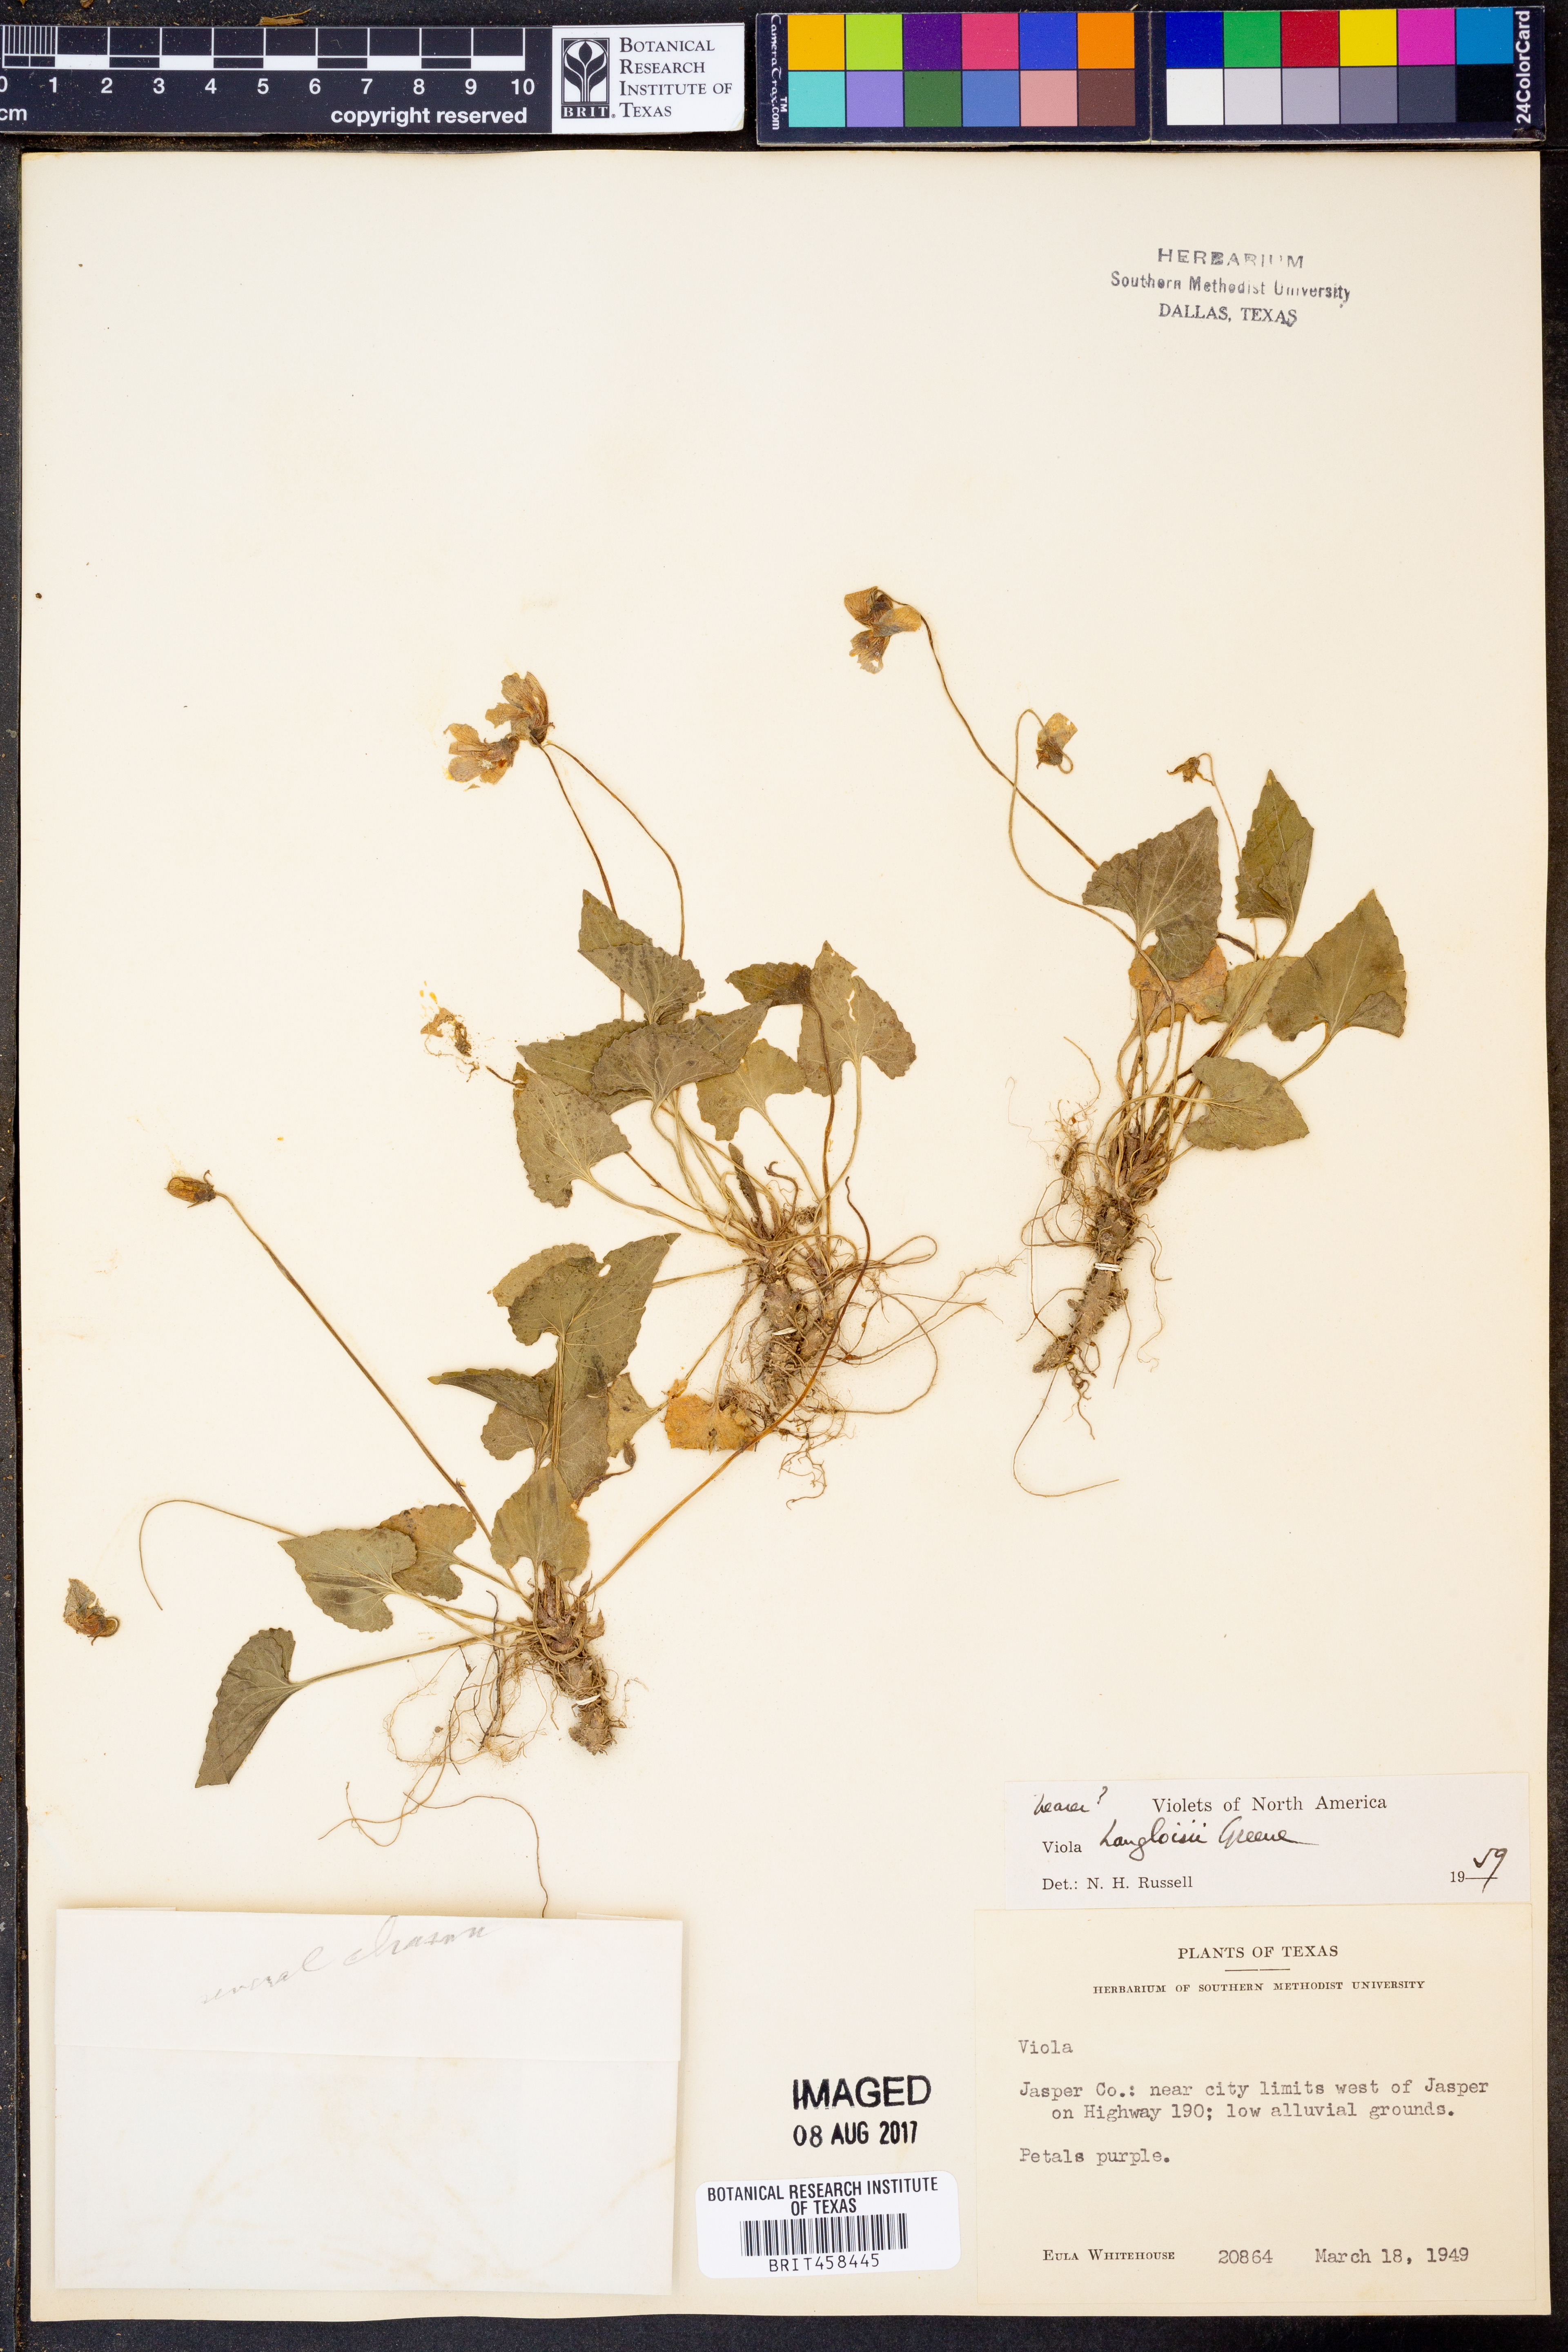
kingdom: Plantae
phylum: Tracheophyta
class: Magnoliopsida
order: Malpighiales
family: Violaceae
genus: Viola
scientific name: Viola langloisii
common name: Langlois' violet
